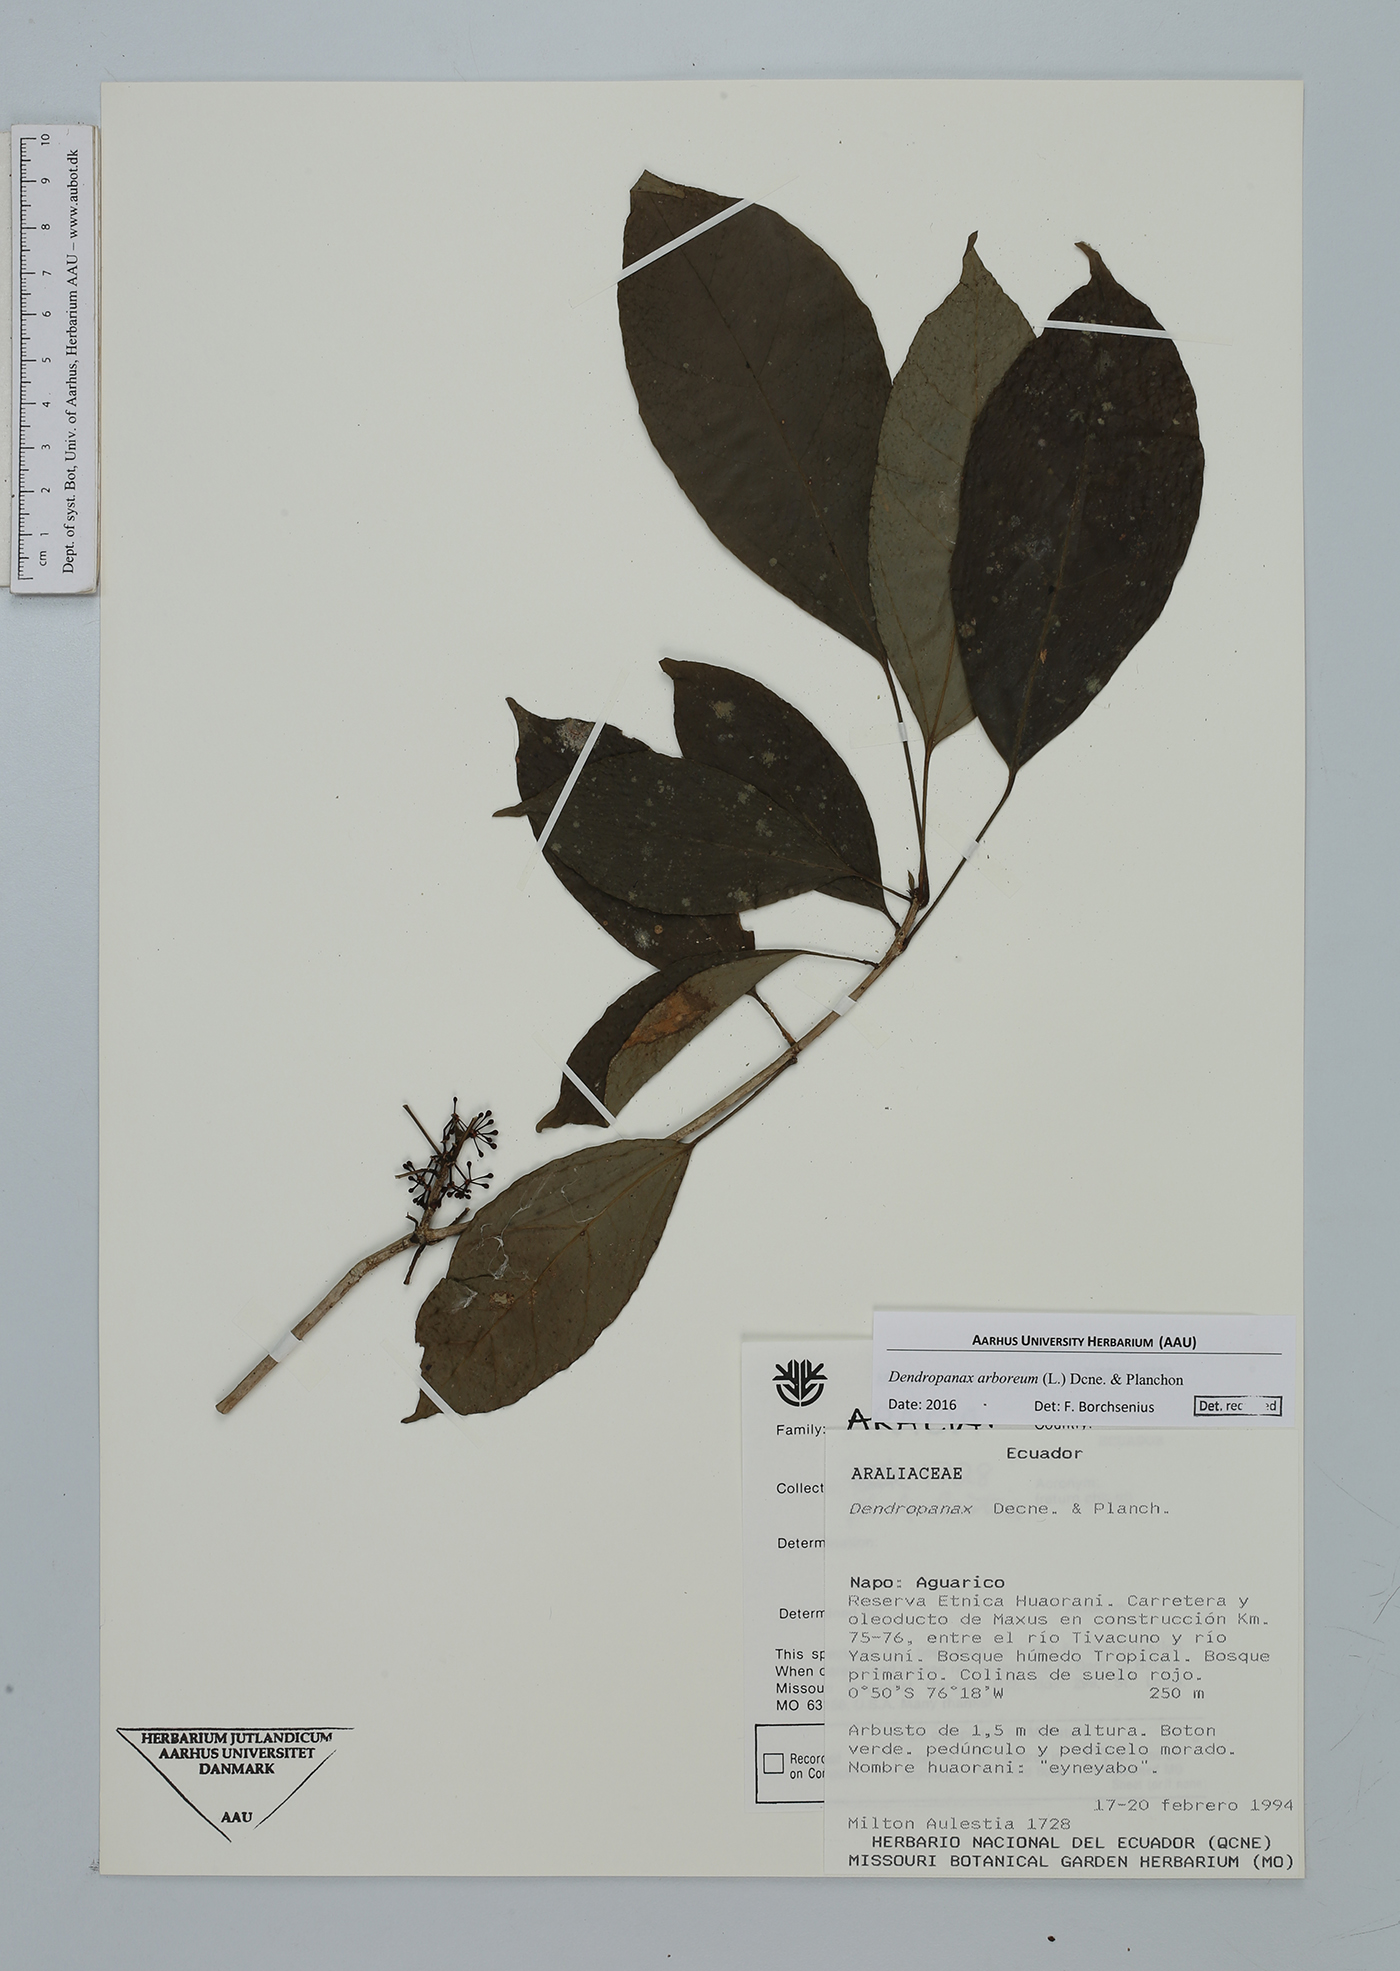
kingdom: Plantae
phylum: Tracheophyta
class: Magnoliopsida
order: Apiales
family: Araliaceae
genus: Dendropanax
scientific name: Dendropanax arboreus
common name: Potato-wood
